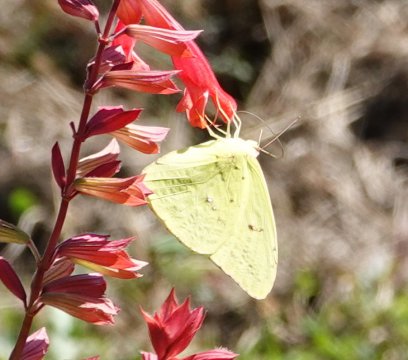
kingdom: Animalia
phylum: Arthropoda
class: Insecta
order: Lepidoptera
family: Pieridae
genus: Phoebis
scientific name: Phoebis sennae
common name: Cloudless Sulphur
